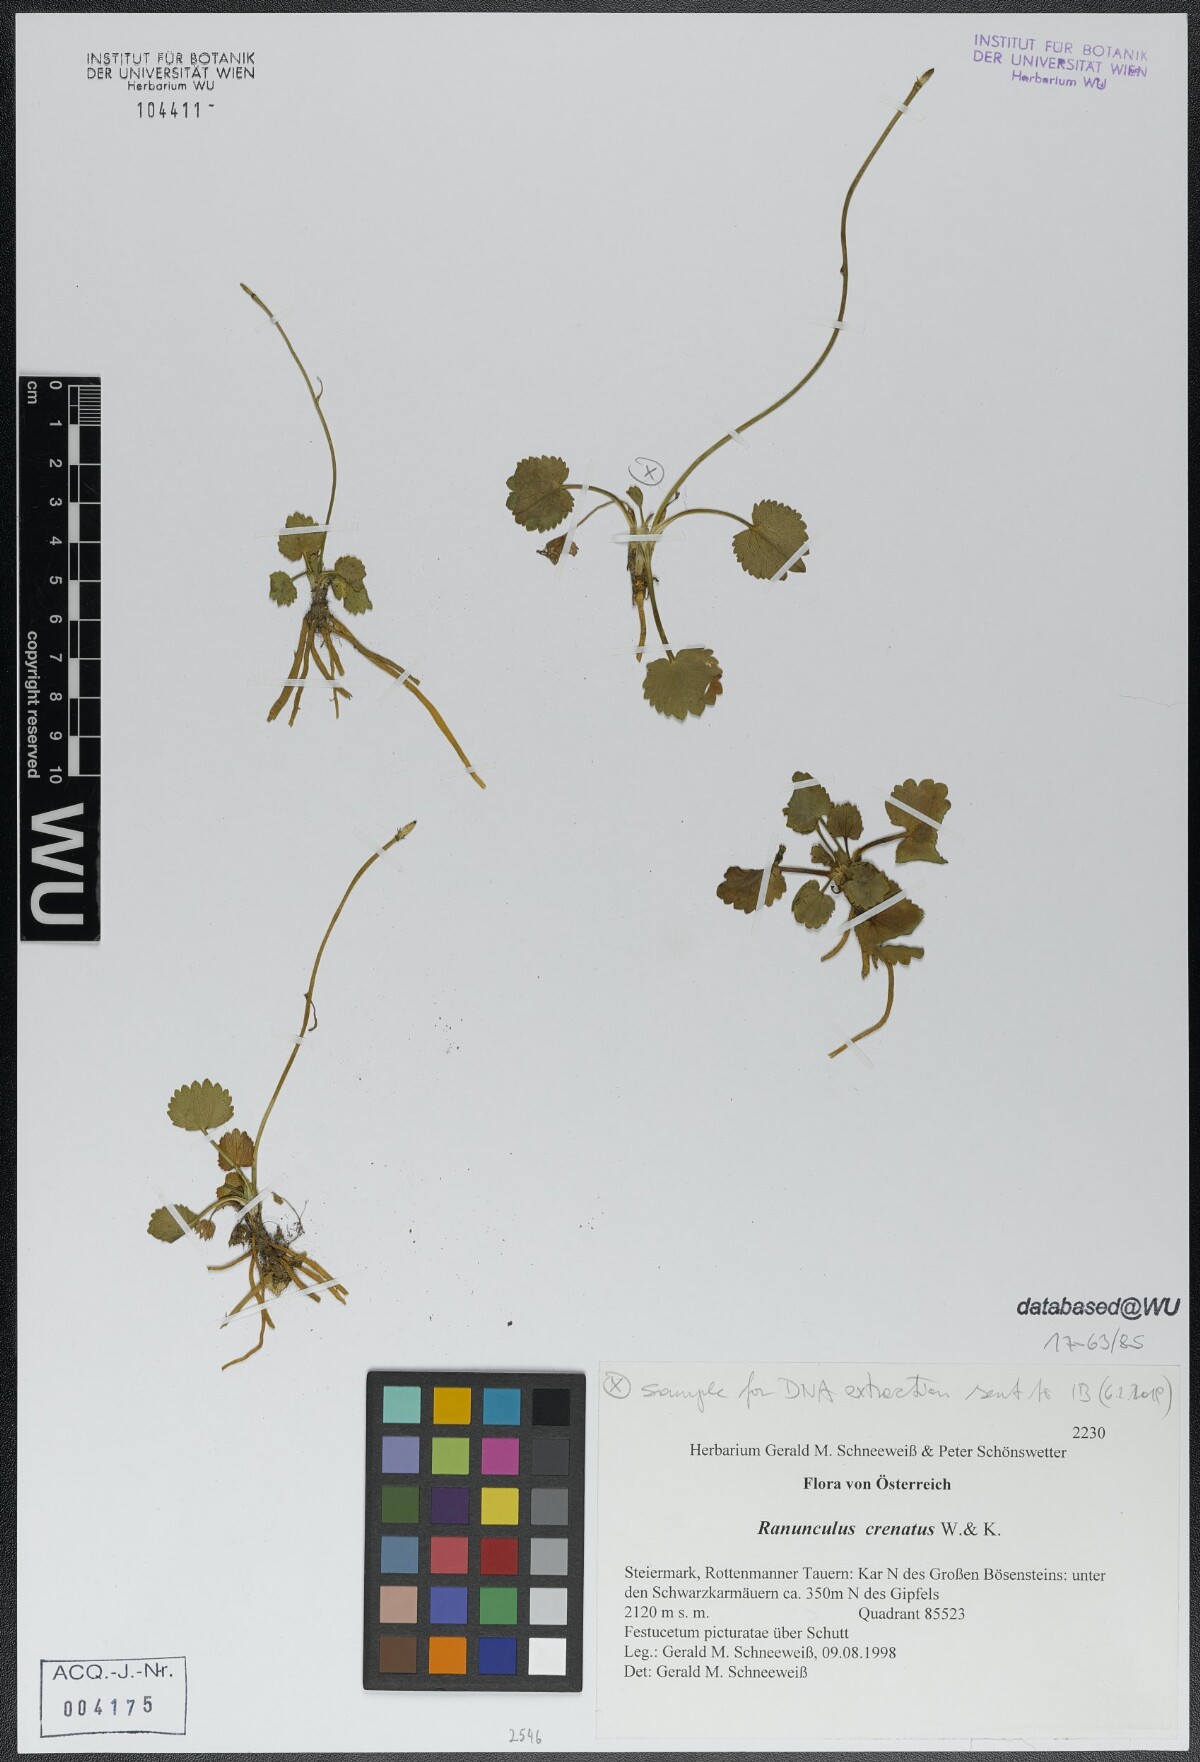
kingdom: Plantae
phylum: Tracheophyta
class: Magnoliopsida
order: Ranunculales
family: Ranunculaceae
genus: Ranunculus
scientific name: Ranunculus crenatus
